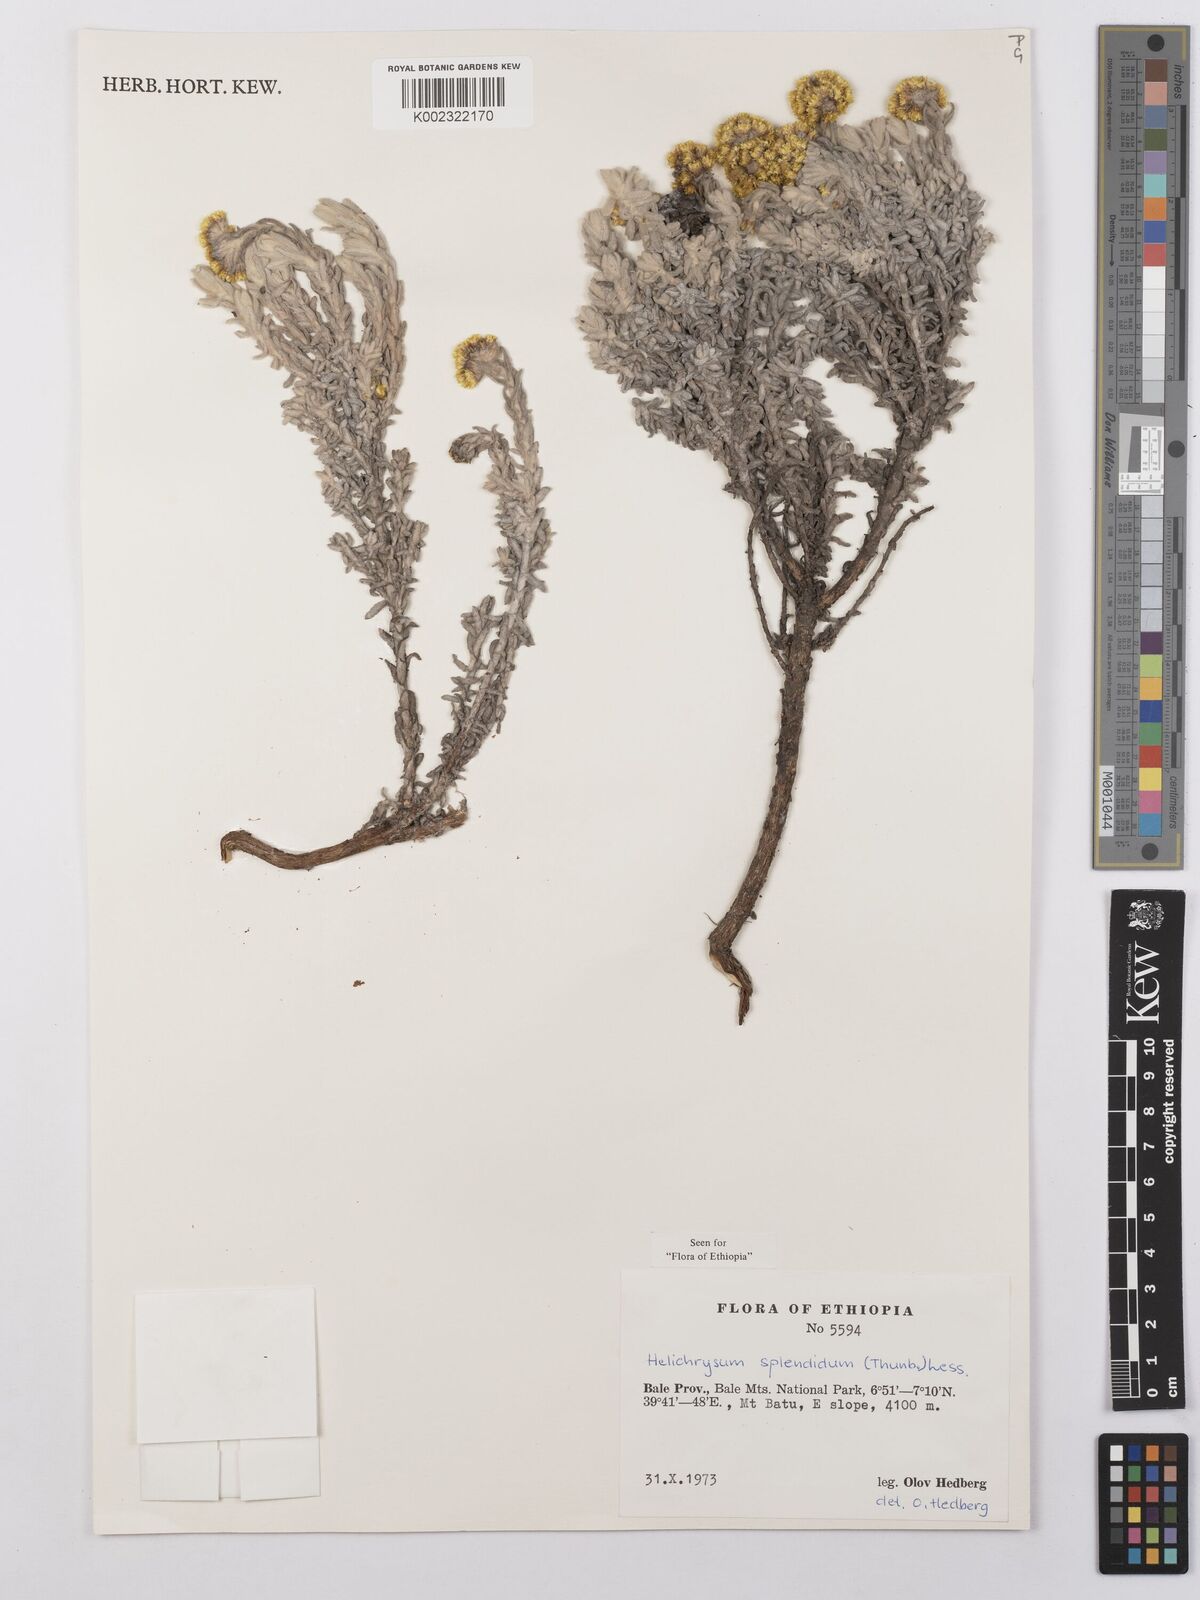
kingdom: Plantae
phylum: Tracheophyta
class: Magnoliopsida
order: Asterales
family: Asteraceae
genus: Helichrysum
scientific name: Helichrysum splendidum
